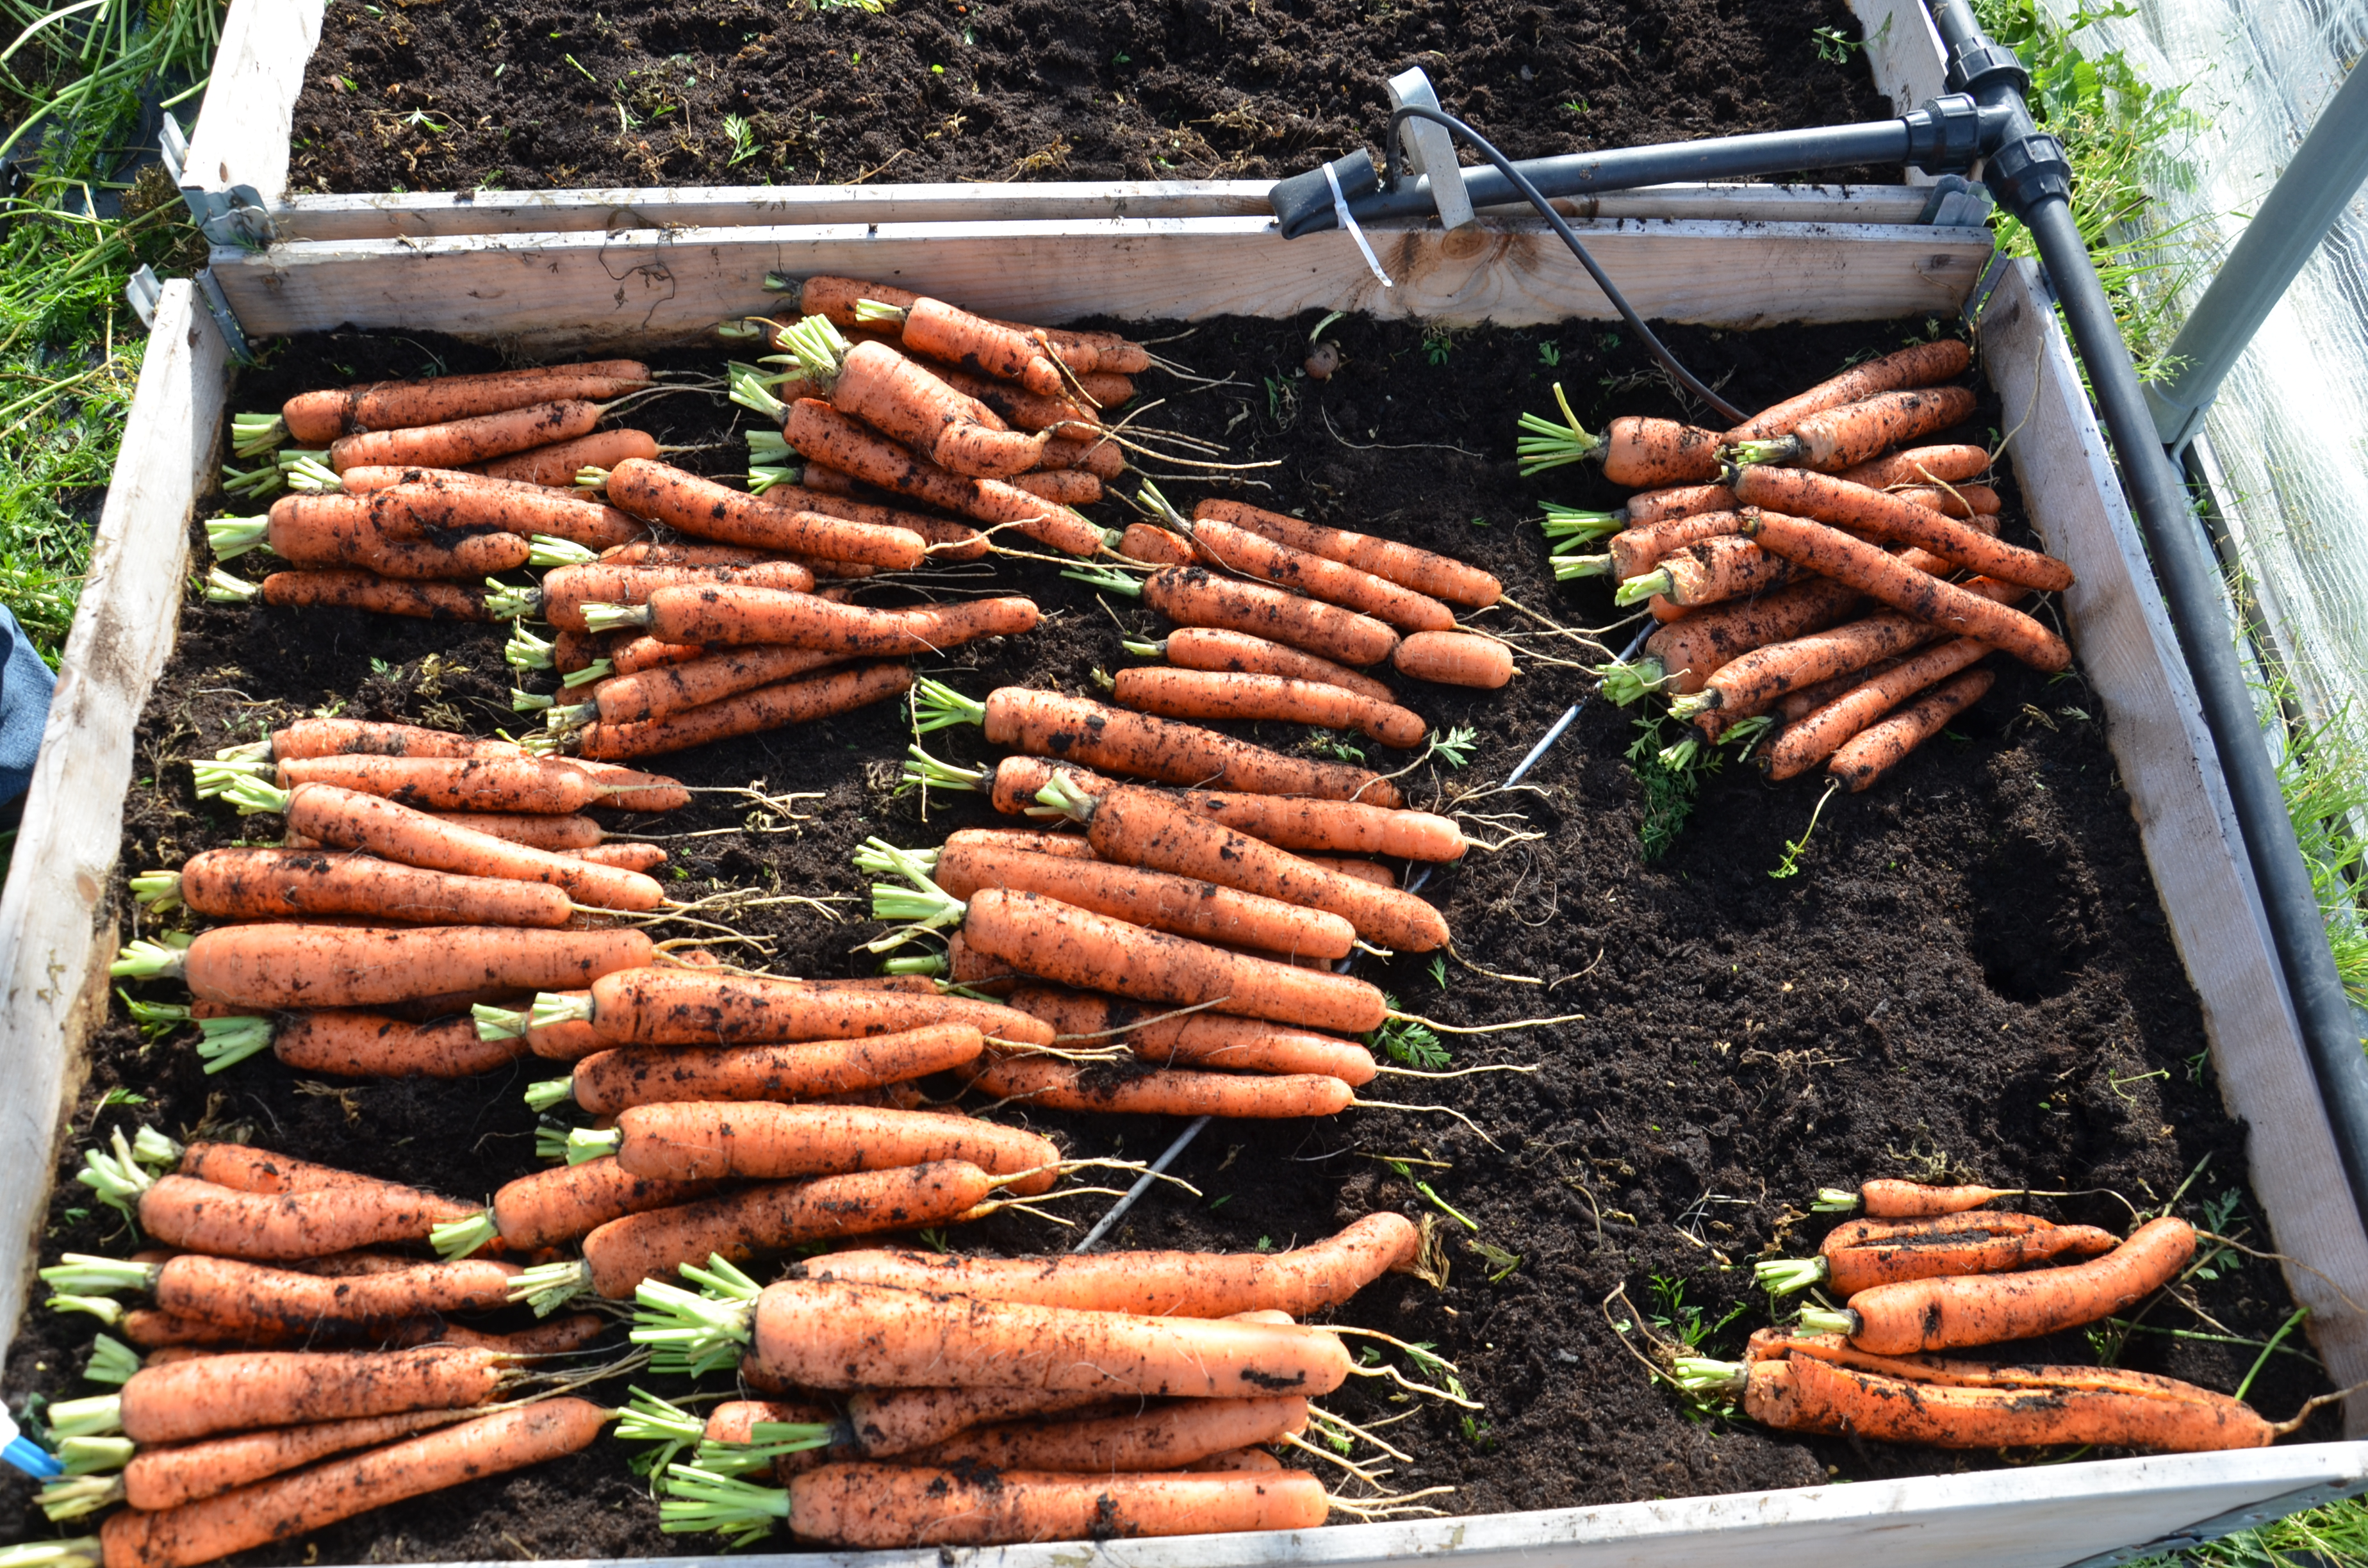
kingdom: Plantae
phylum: Tracheophyta
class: Magnoliopsida
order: Apiales
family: Apiaceae
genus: Daucus
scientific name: Daucus carota
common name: Wild carrot
